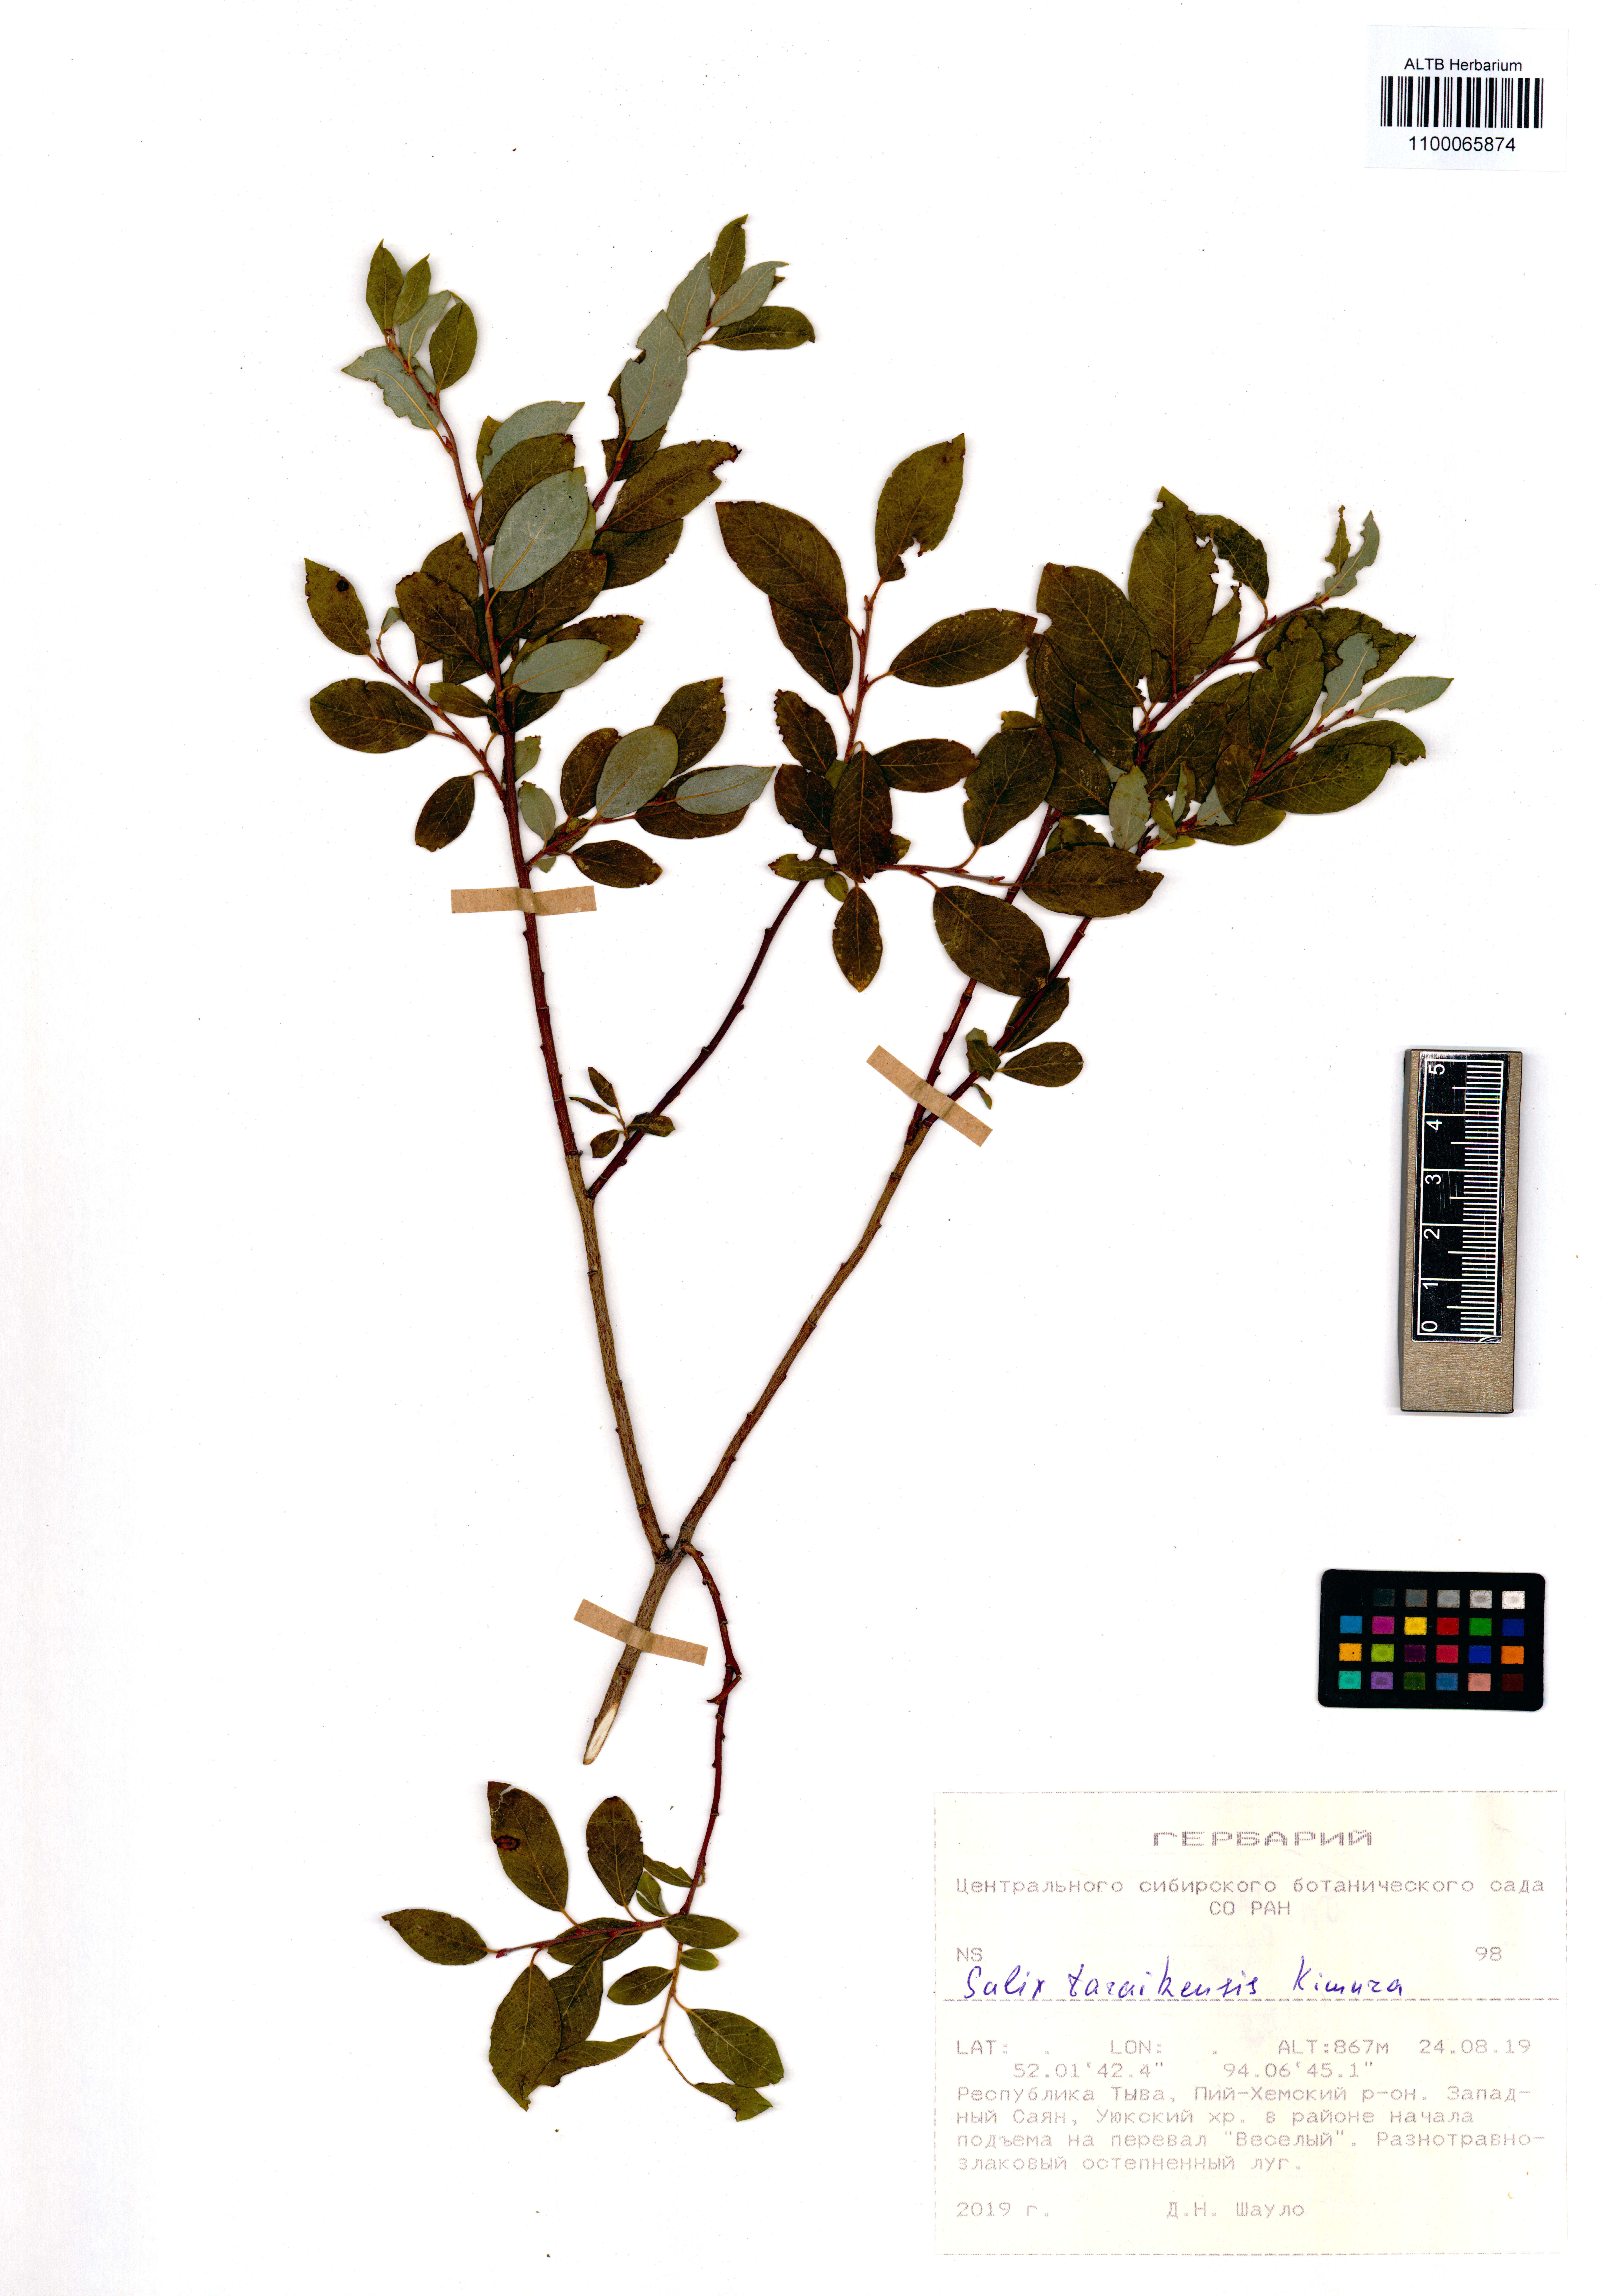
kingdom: Plantae
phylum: Tracheophyta
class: Magnoliopsida
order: Malpighiales
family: Salicaceae
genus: Salix
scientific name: Salix taraikensis
